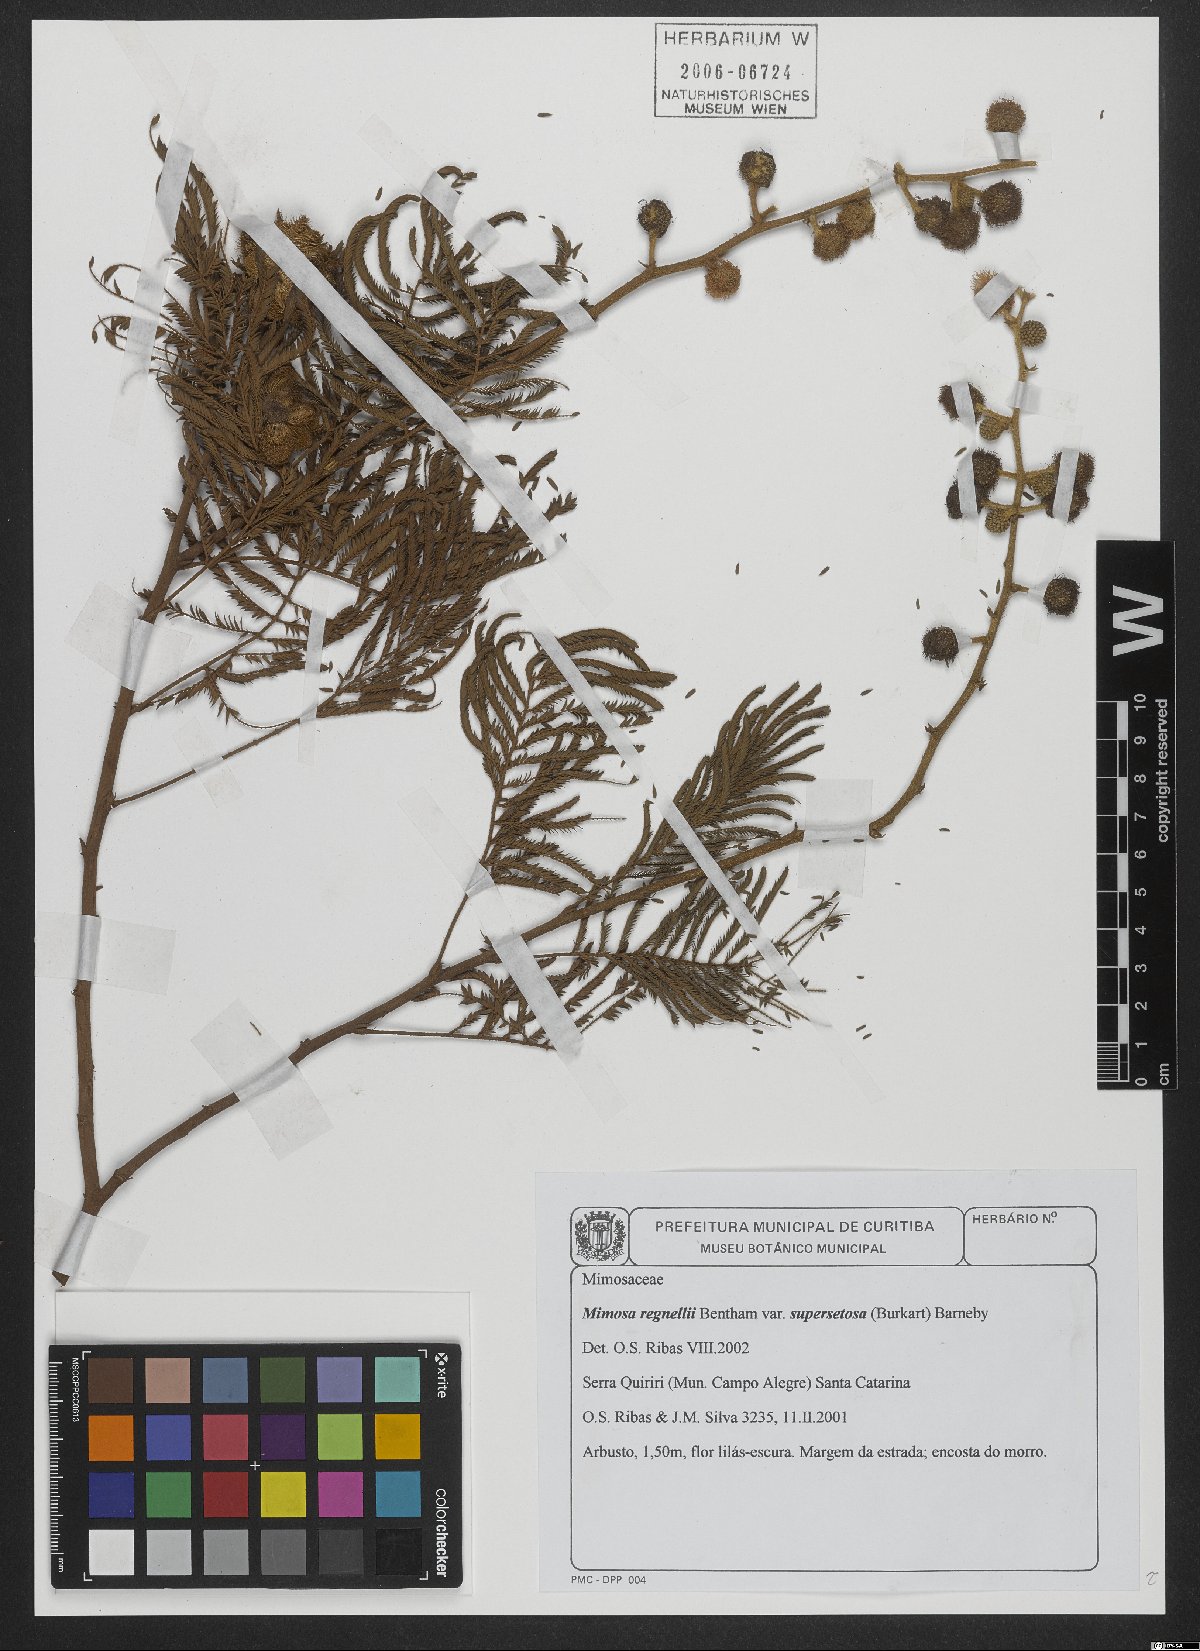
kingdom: Plantae
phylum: Tracheophyta
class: Magnoliopsida
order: Fabales
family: Fabaceae
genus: Mimosa
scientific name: Mimosa regnellii
